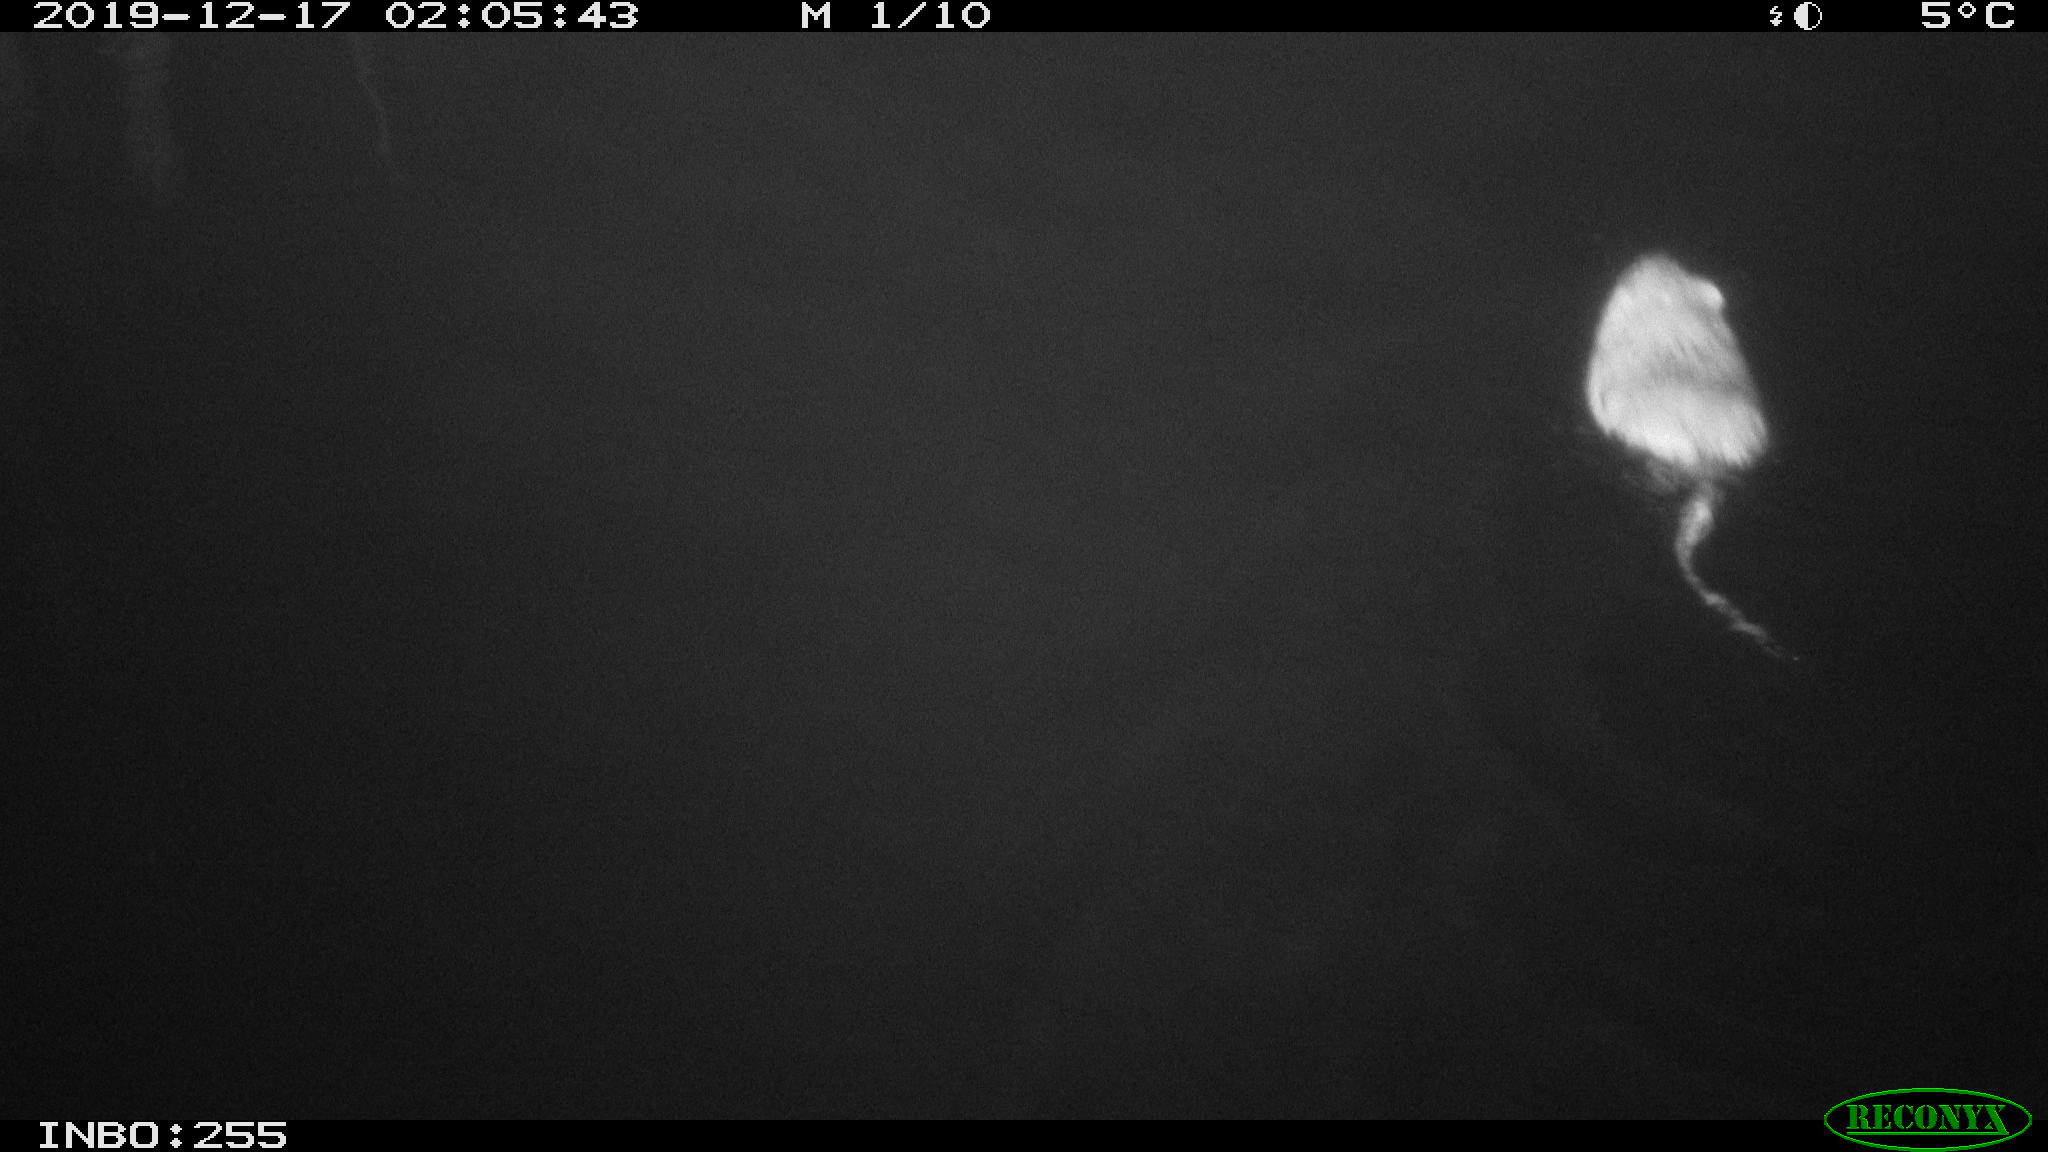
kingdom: Animalia
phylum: Chordata
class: Mammalia
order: Rodentia
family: Cricetidae
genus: Ondatra
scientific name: Ondatra zibethicus
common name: Muskrat
